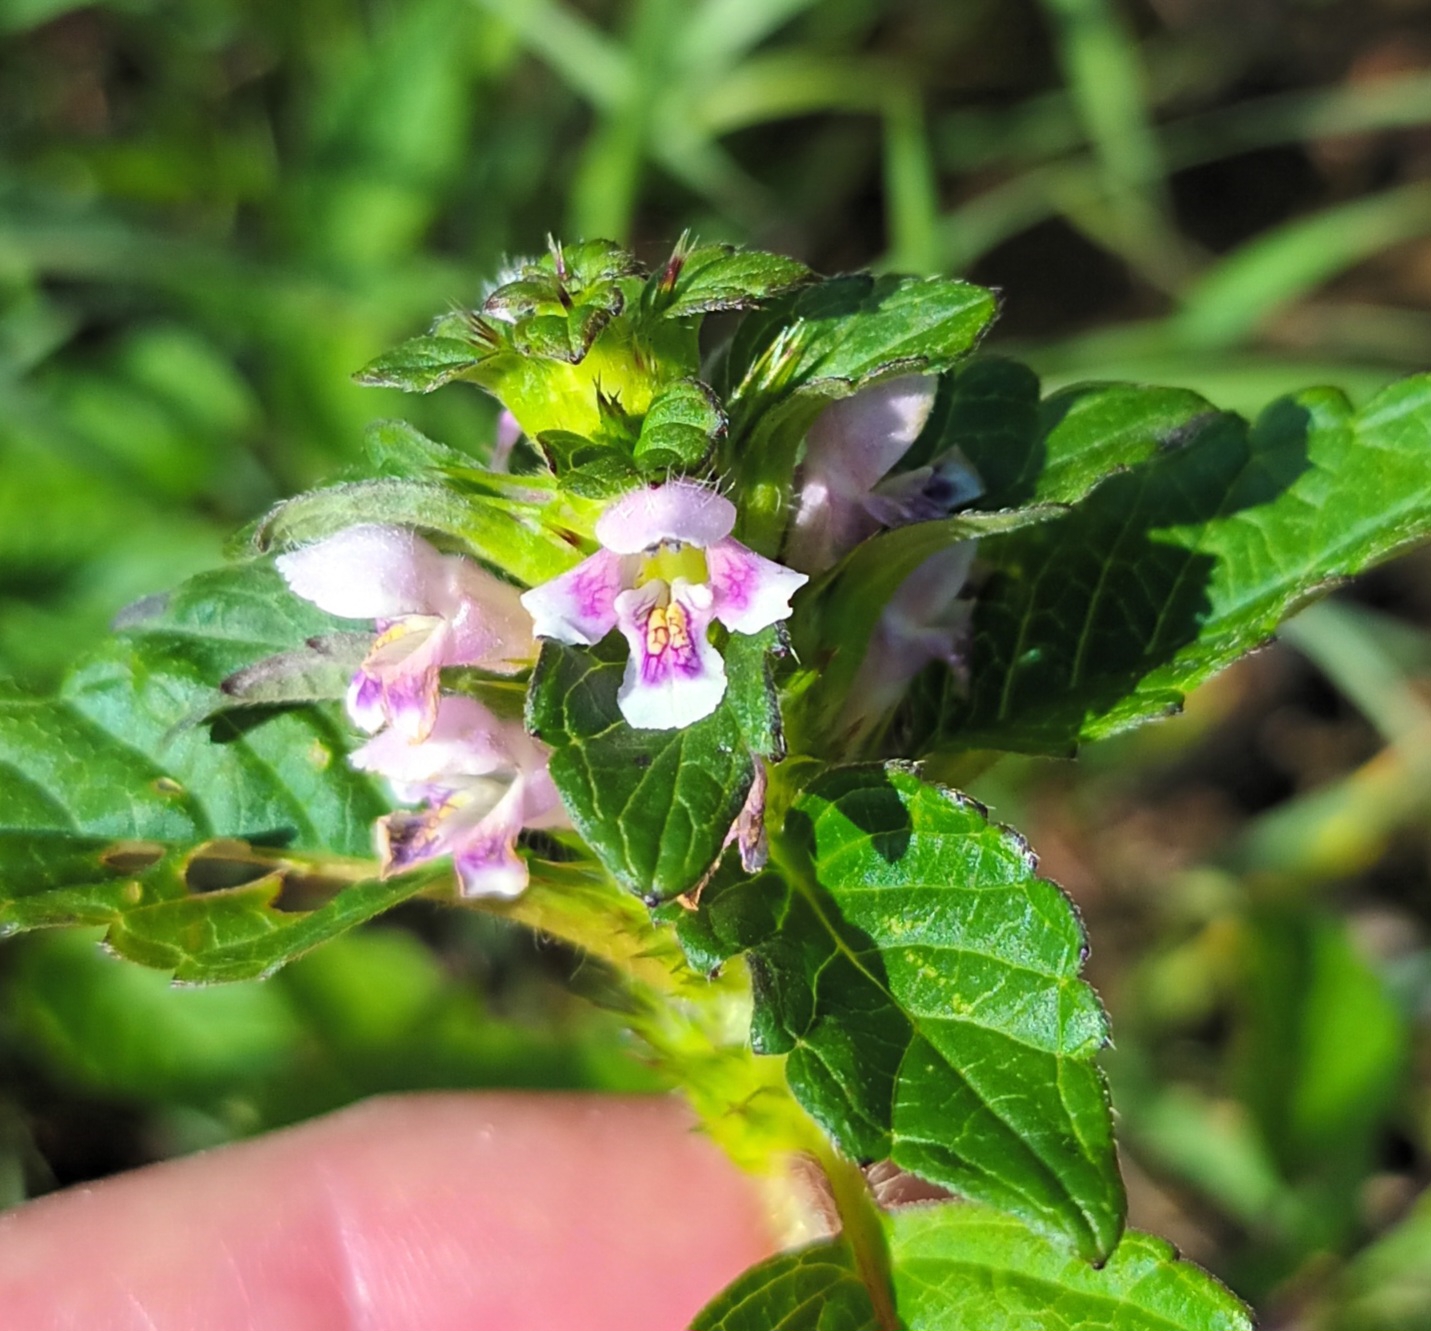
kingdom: Plantae
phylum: Tracheophyta
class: Magnoliopsida
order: Lamiales
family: Lamiaceae
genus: Galeopsis
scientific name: Galeopsis tetrahit
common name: Almindelig hanekro
